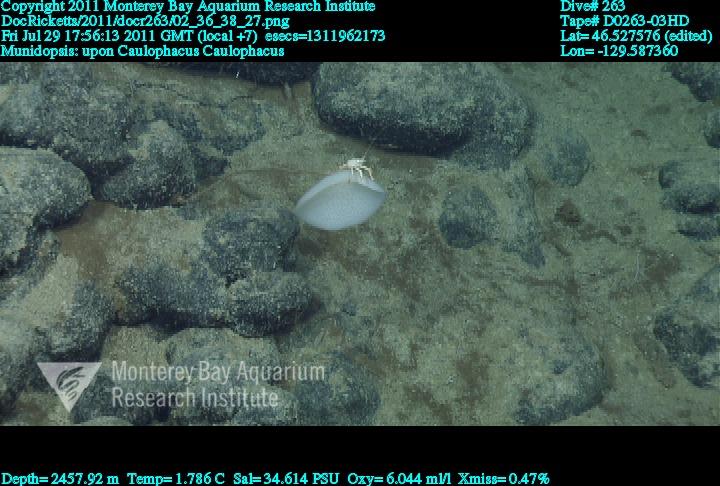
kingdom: Animalia
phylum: Porifera
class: Hexactinellida
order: Lyssacinosida
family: Rossellidae
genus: Caulophacus
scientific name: Caulophacus
